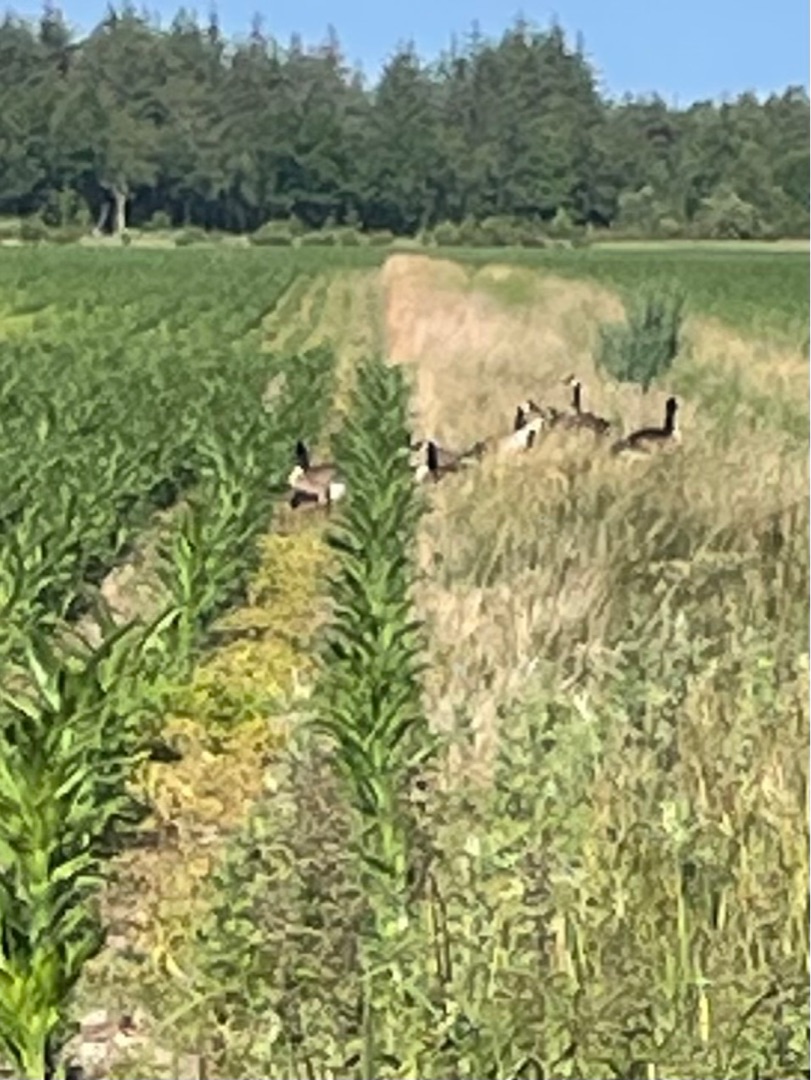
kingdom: Animalia
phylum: Chordata
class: Aves
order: Anseriformes
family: Anatidae
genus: Branta
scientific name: Branta canadensis
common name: Canadagås
